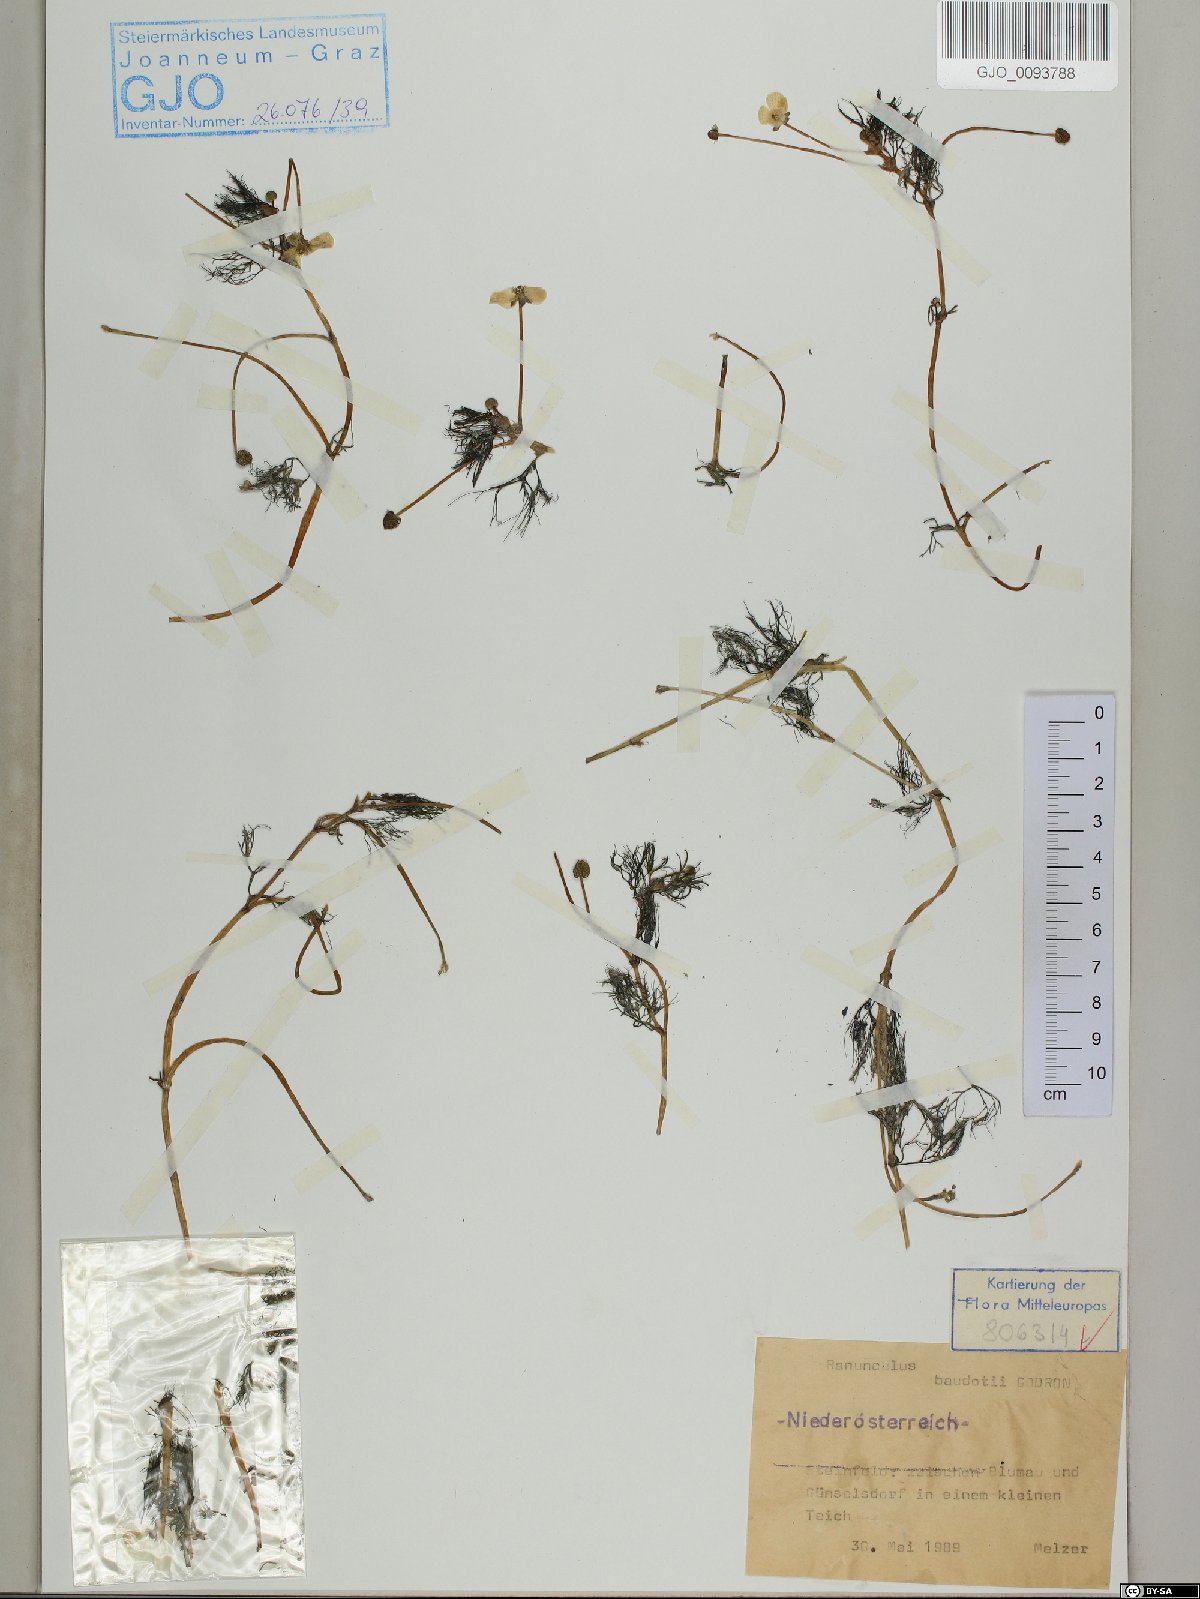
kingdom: Plantae
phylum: Tracheophyta
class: Magnoliopsida
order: Ranunculales
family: Ranunculaceae
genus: Ranunculus
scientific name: Ranunculus peltatus
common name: Pond water-crowfoot
